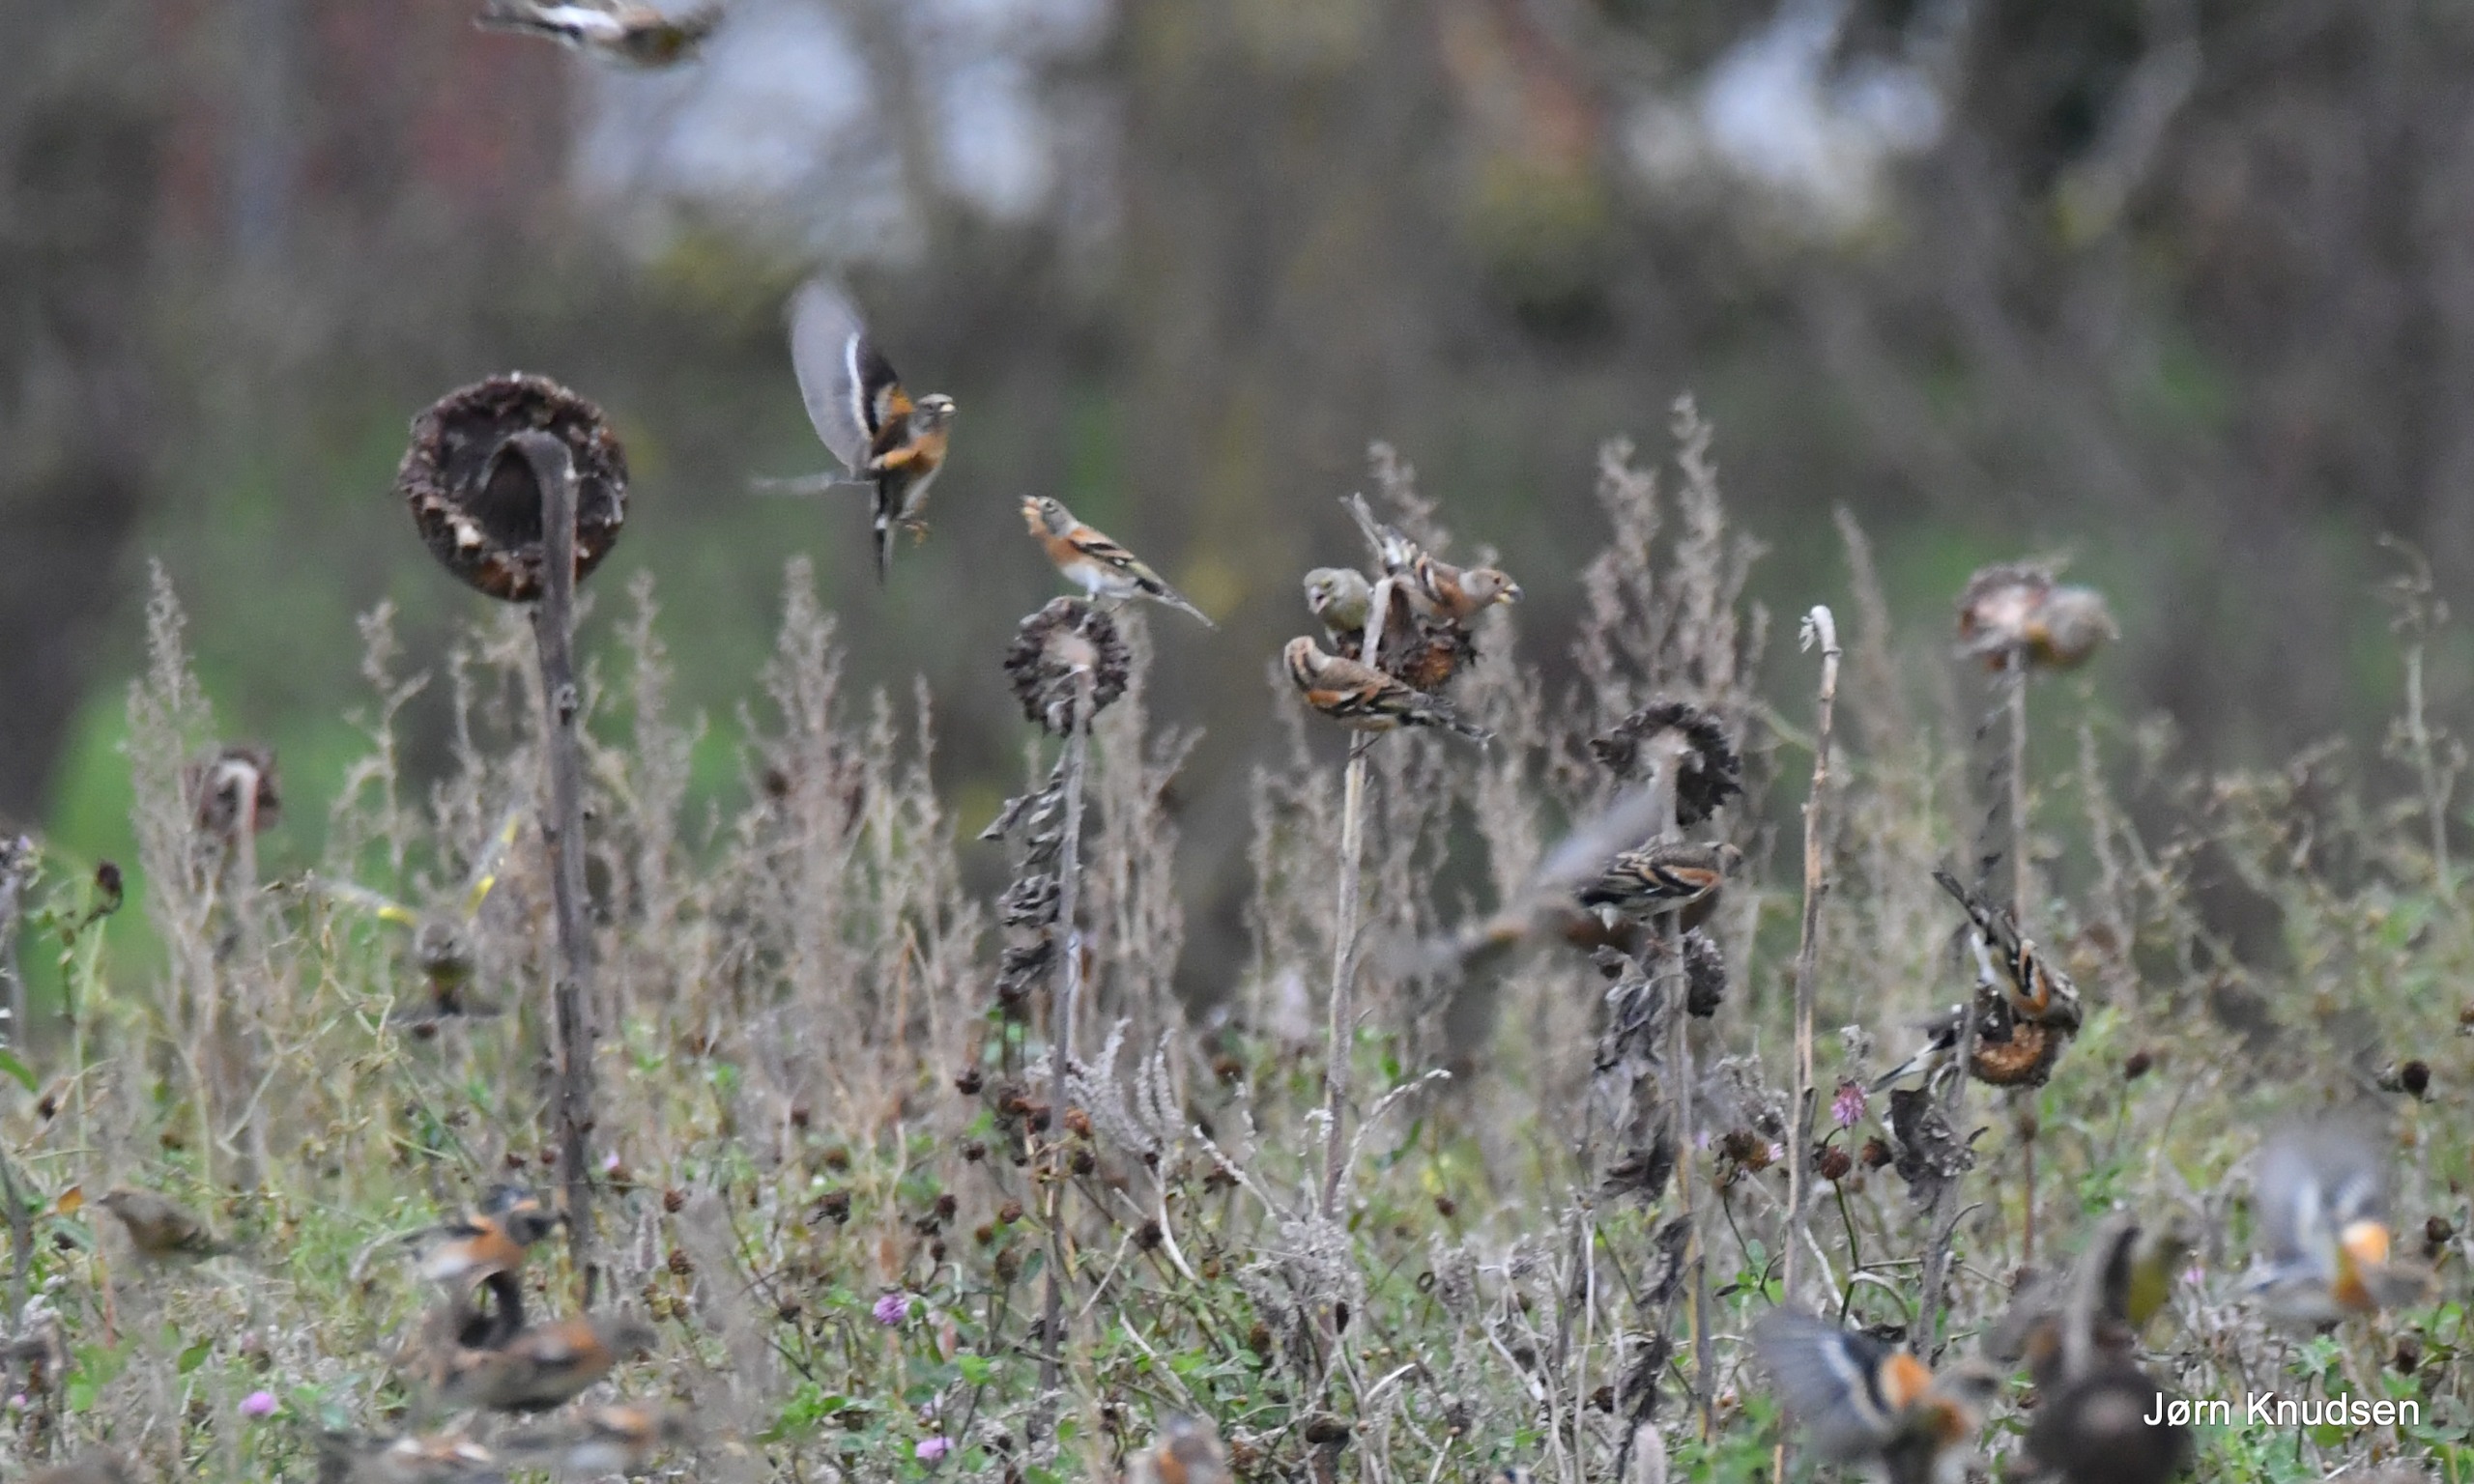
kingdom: Animalia
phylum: Chordata
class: Aves
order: Passeriformes
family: Fringillidae
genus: Fringilla
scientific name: Fringilla montifringilla
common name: Kvækerfinke
